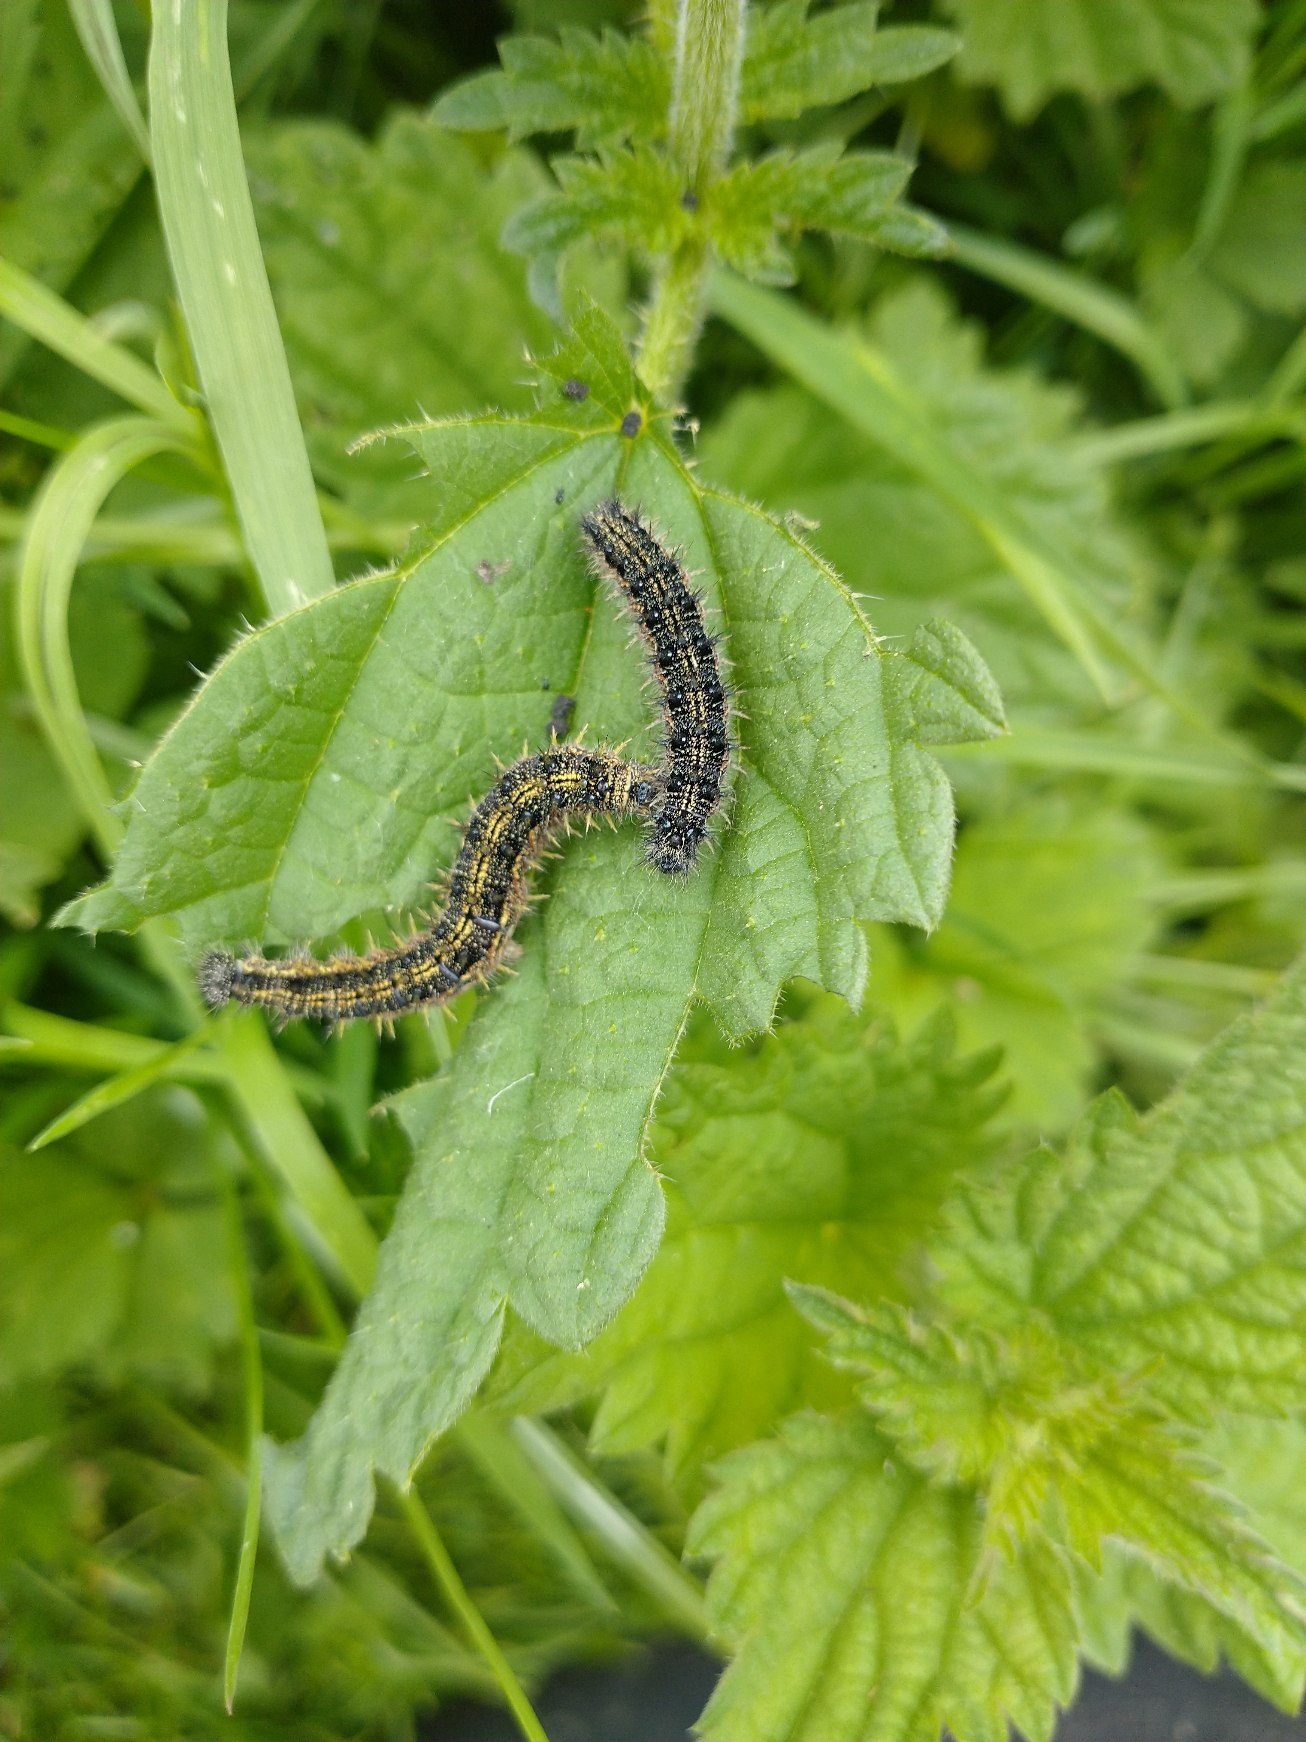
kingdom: Animalia
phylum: Arthropoda
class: Insecta
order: Lepidoptera
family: Nymphalidae
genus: Aglais
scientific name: Aglais urticae
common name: Nældens takvinge
